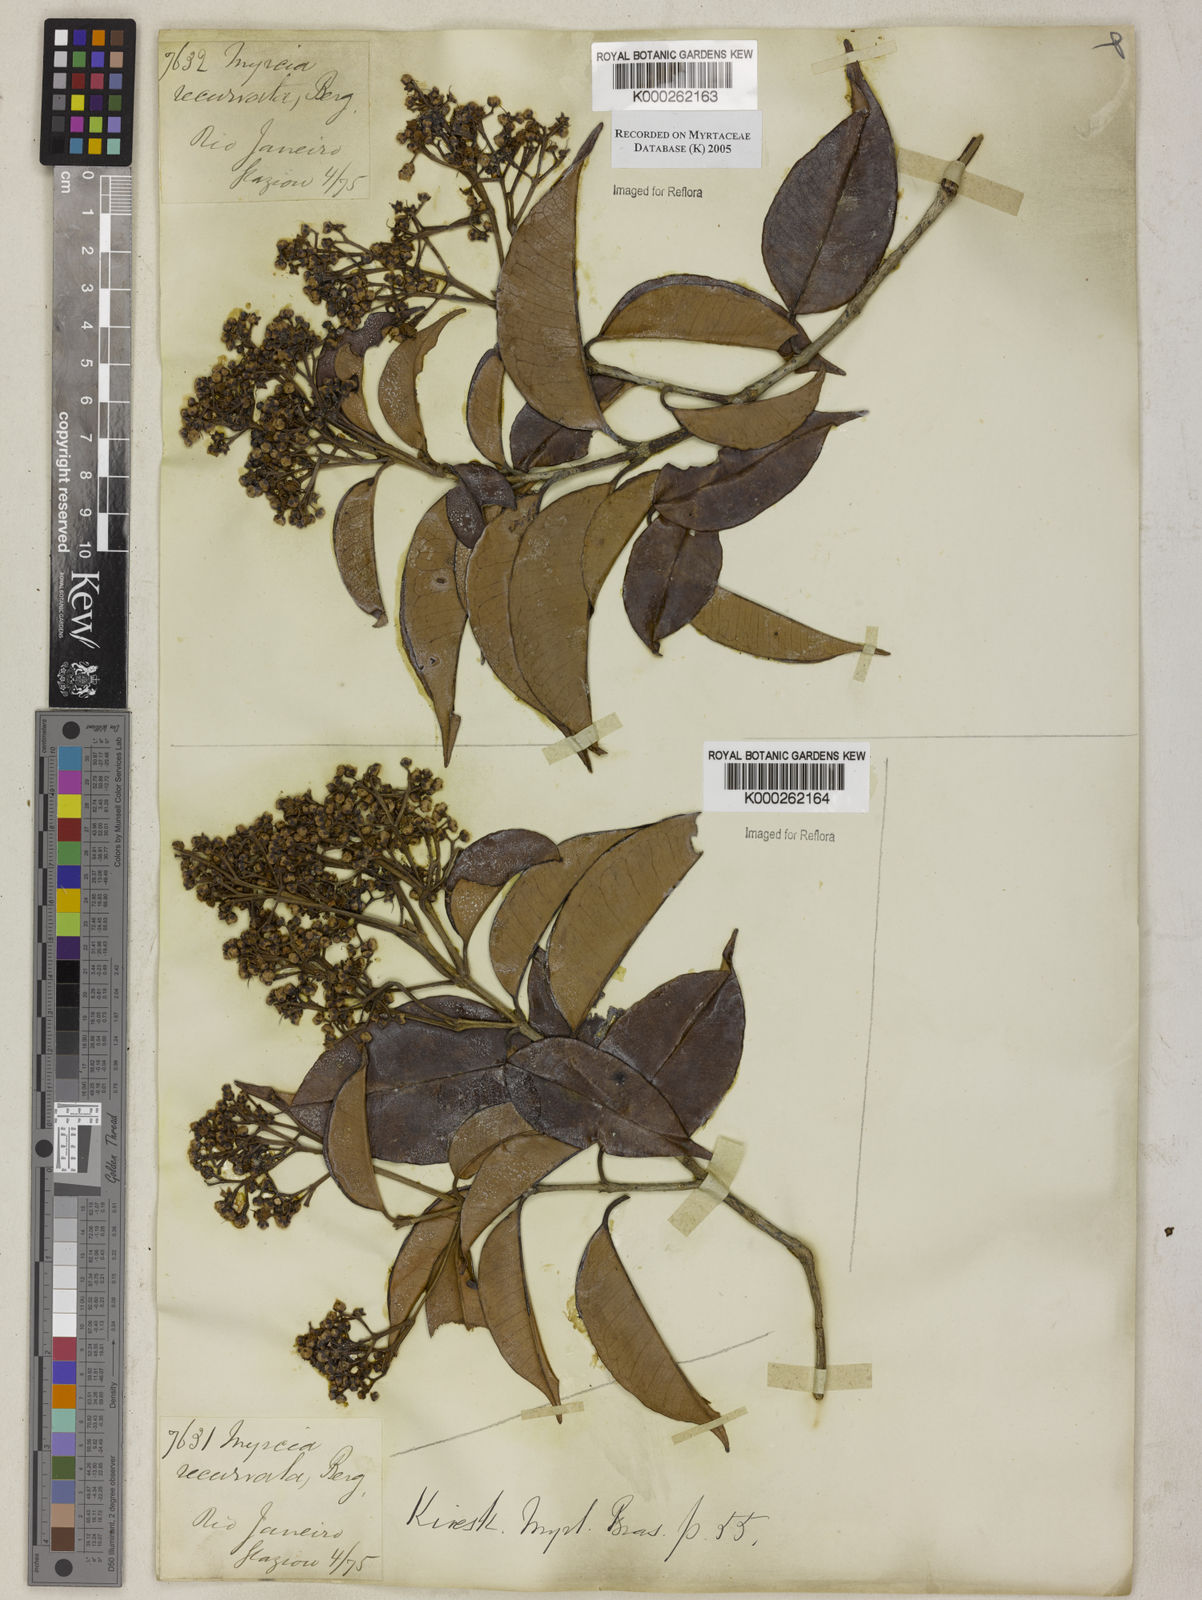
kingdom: Plantae
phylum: Tracheophyta
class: Magnoliopsida
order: Myrtales
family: Myrtaceae
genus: Myrcia
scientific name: Myrcia recurvata
